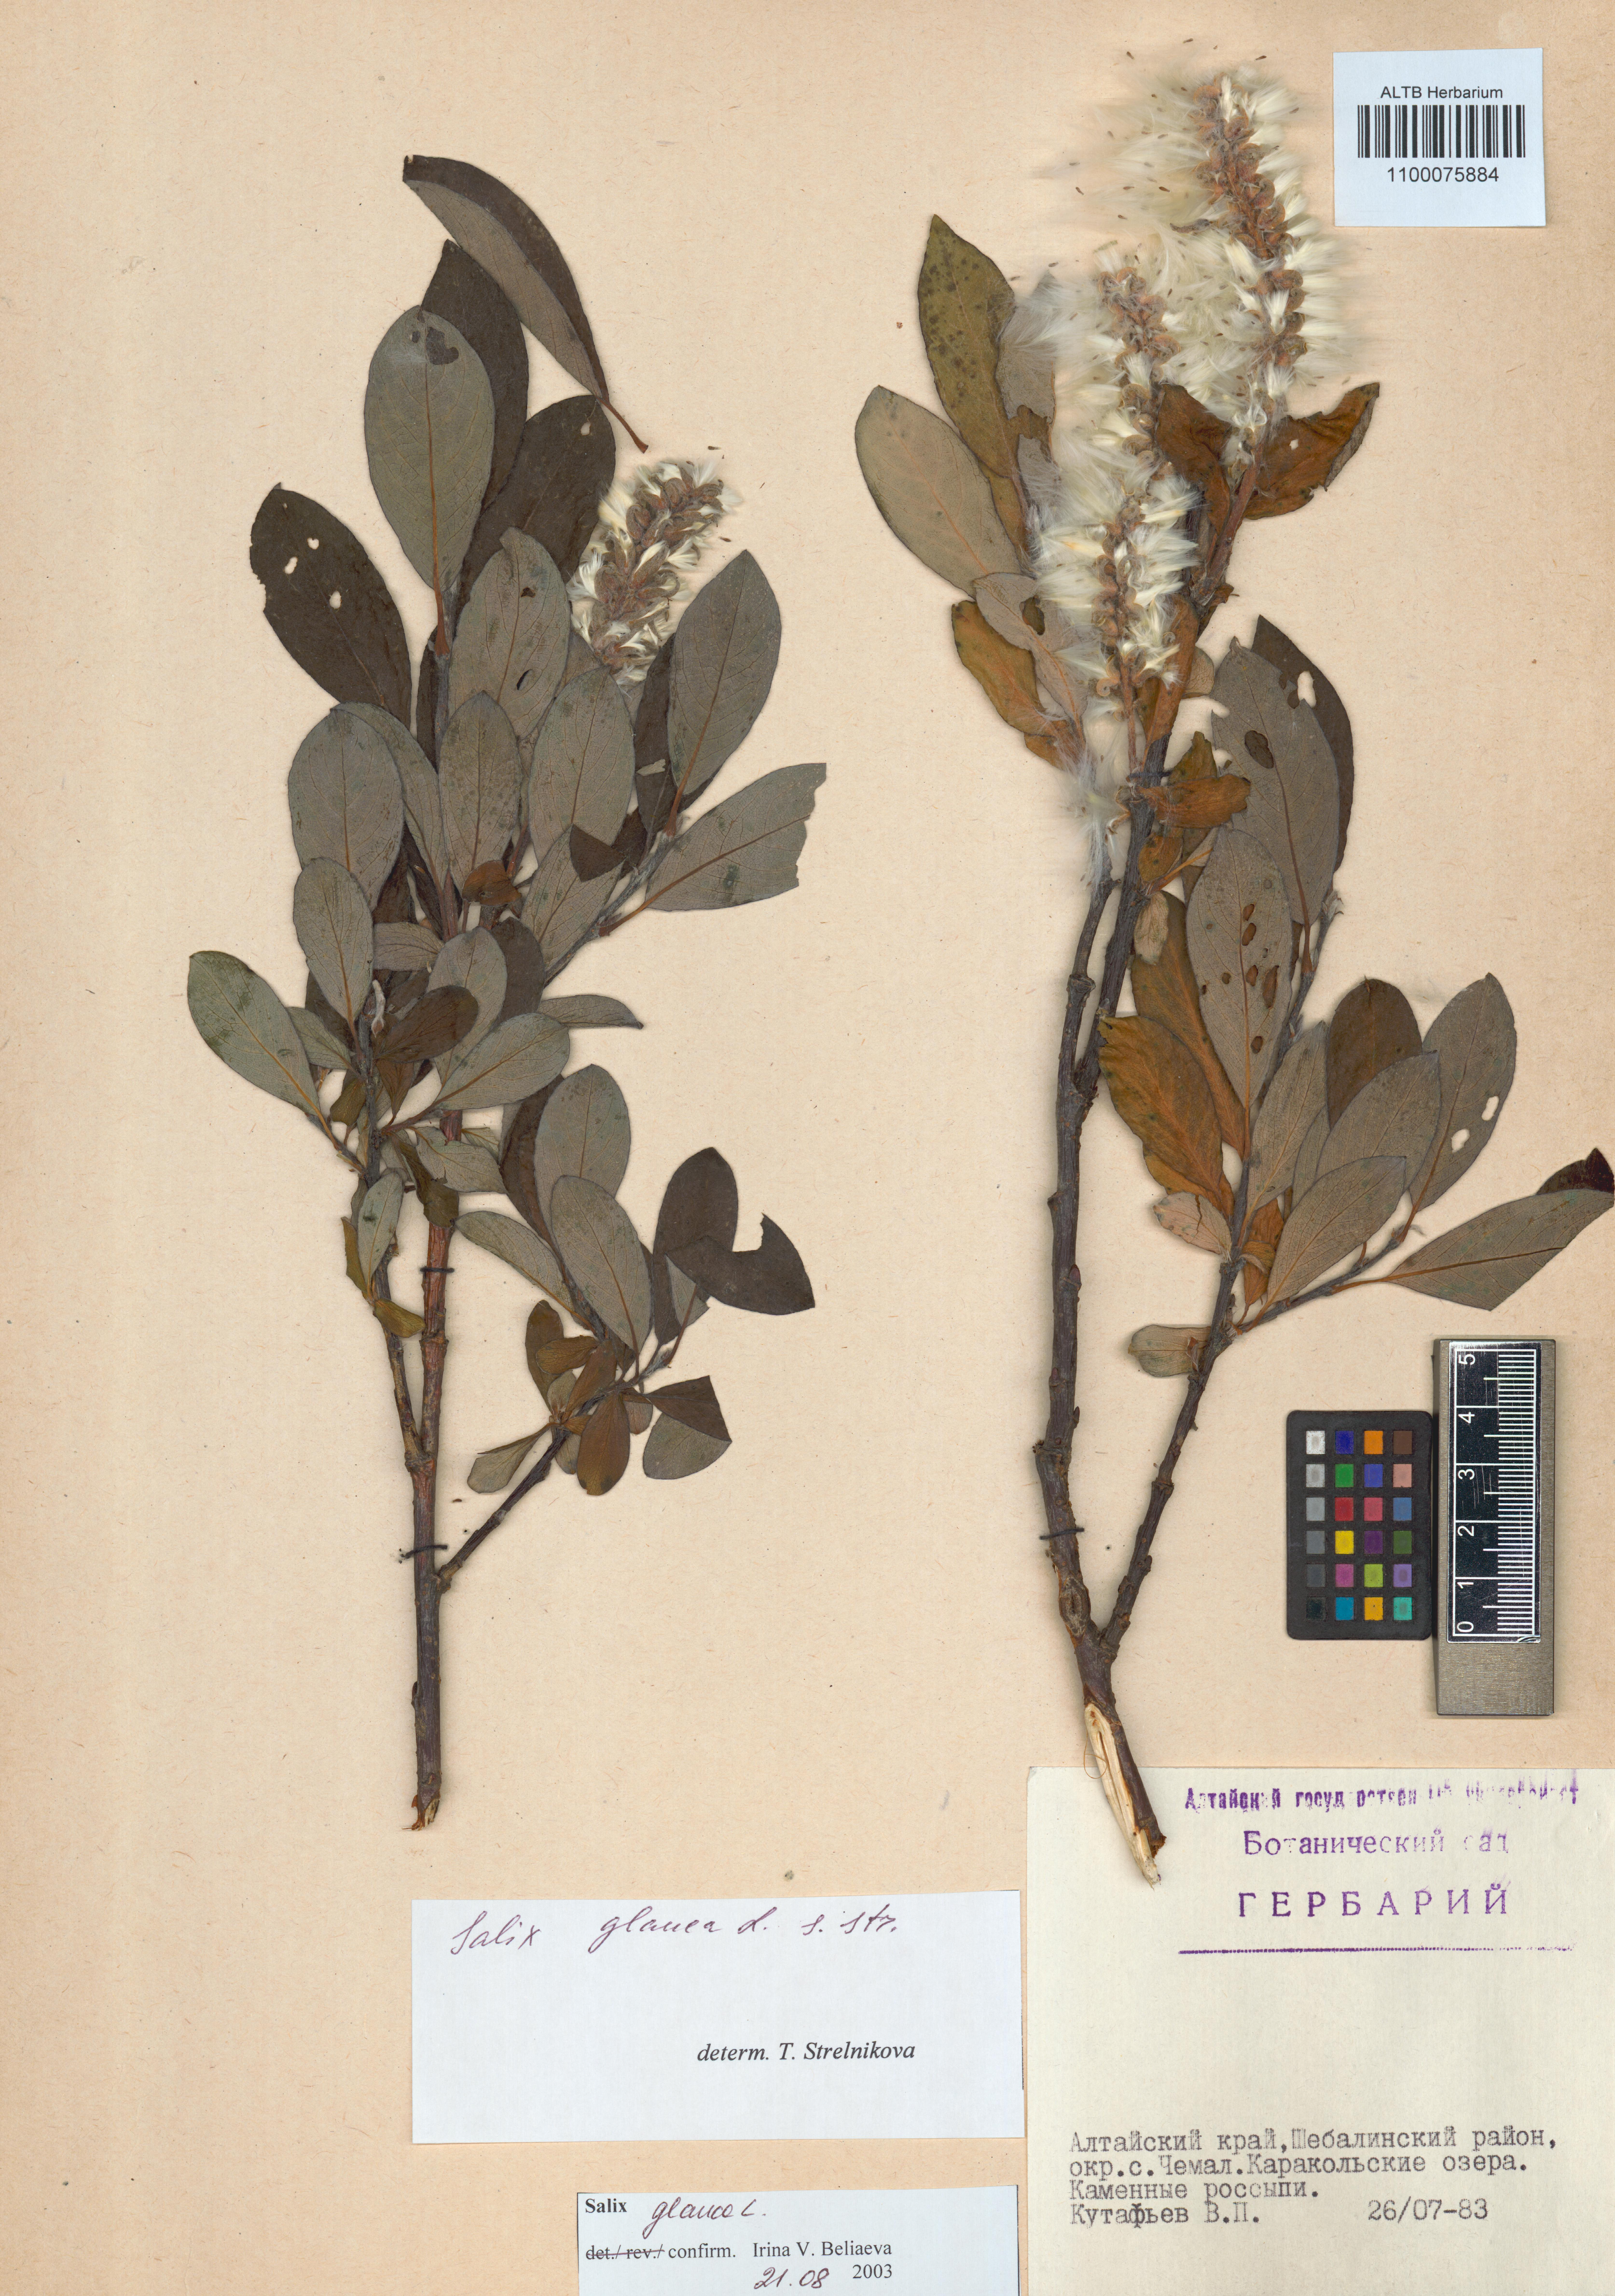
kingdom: Plantae
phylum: Tracheophyta
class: Magnoliopsida
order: Malpighiales
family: Salicaceae
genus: Salix
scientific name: Salix glauca
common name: Glaucous willow
